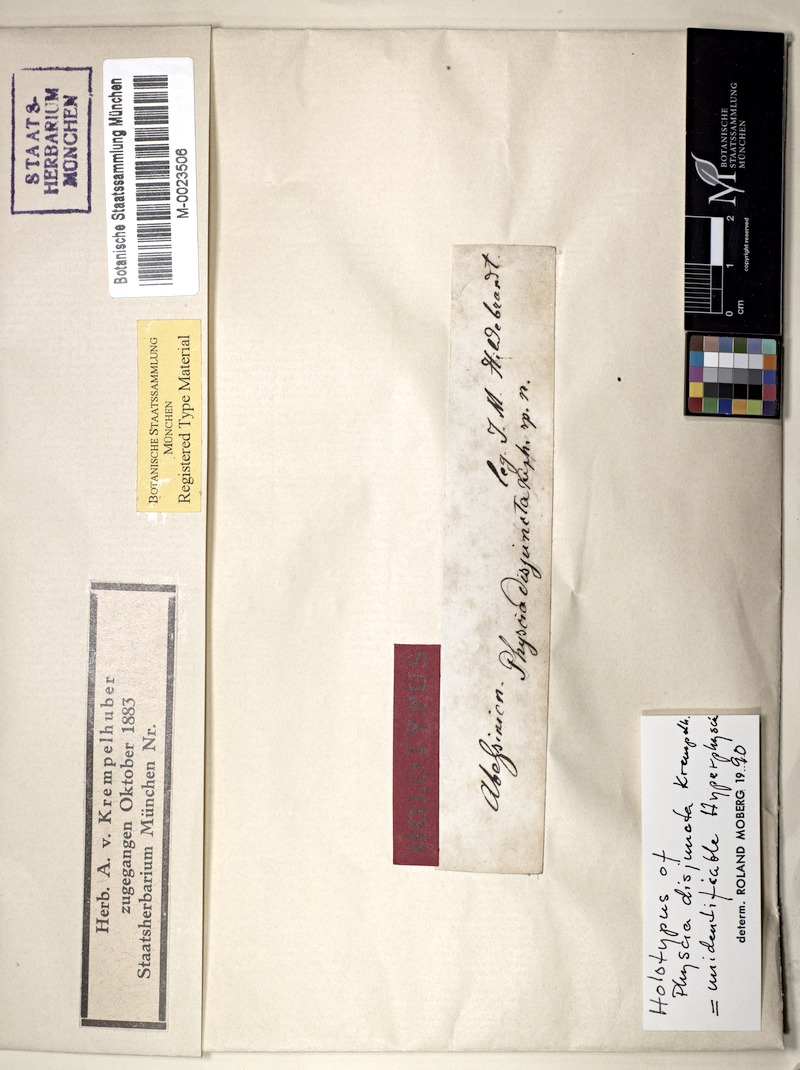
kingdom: Fungi
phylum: Ascomycota
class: Lecanoromycetes
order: Caliciales
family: Physciaceae
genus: Hyperphyscia
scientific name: Hyperphyscia
